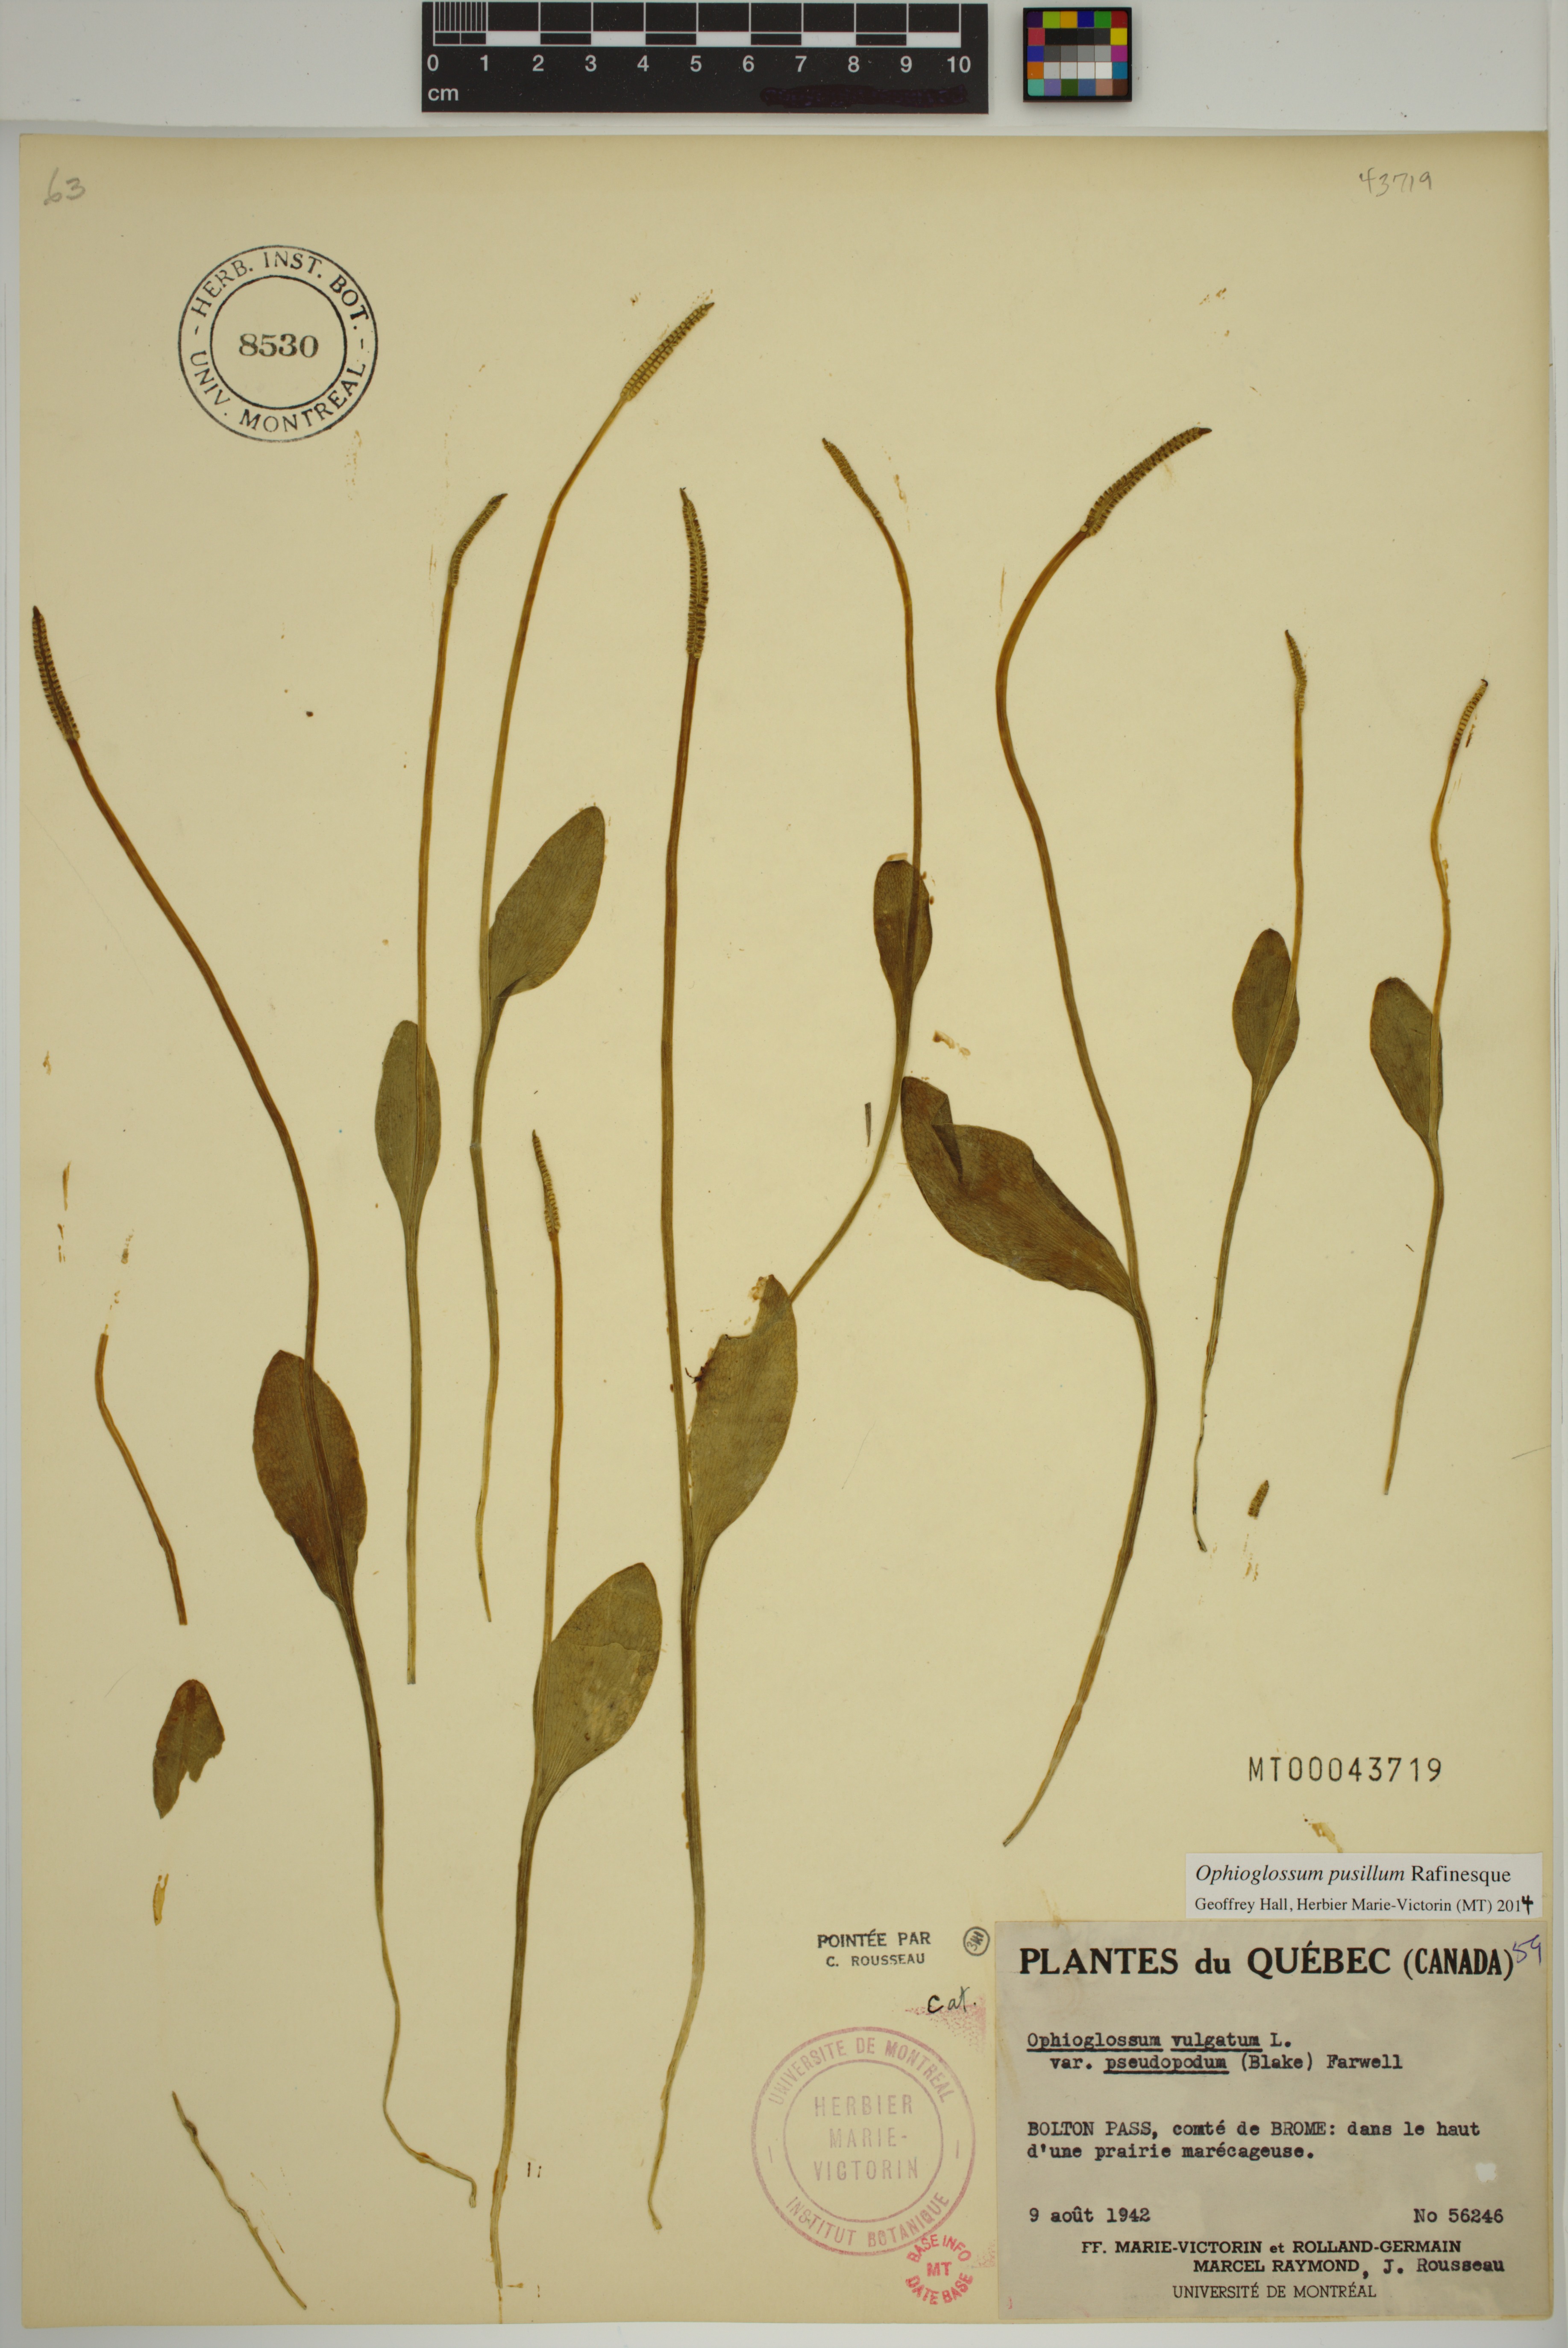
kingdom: Plantae
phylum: Tracheophyta
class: Polypodiopsida
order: Ophioglossales
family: Ophioglossaceae
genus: Ophioglossum
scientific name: Ophioglossum pusillum
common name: Northern adder's-tongue
